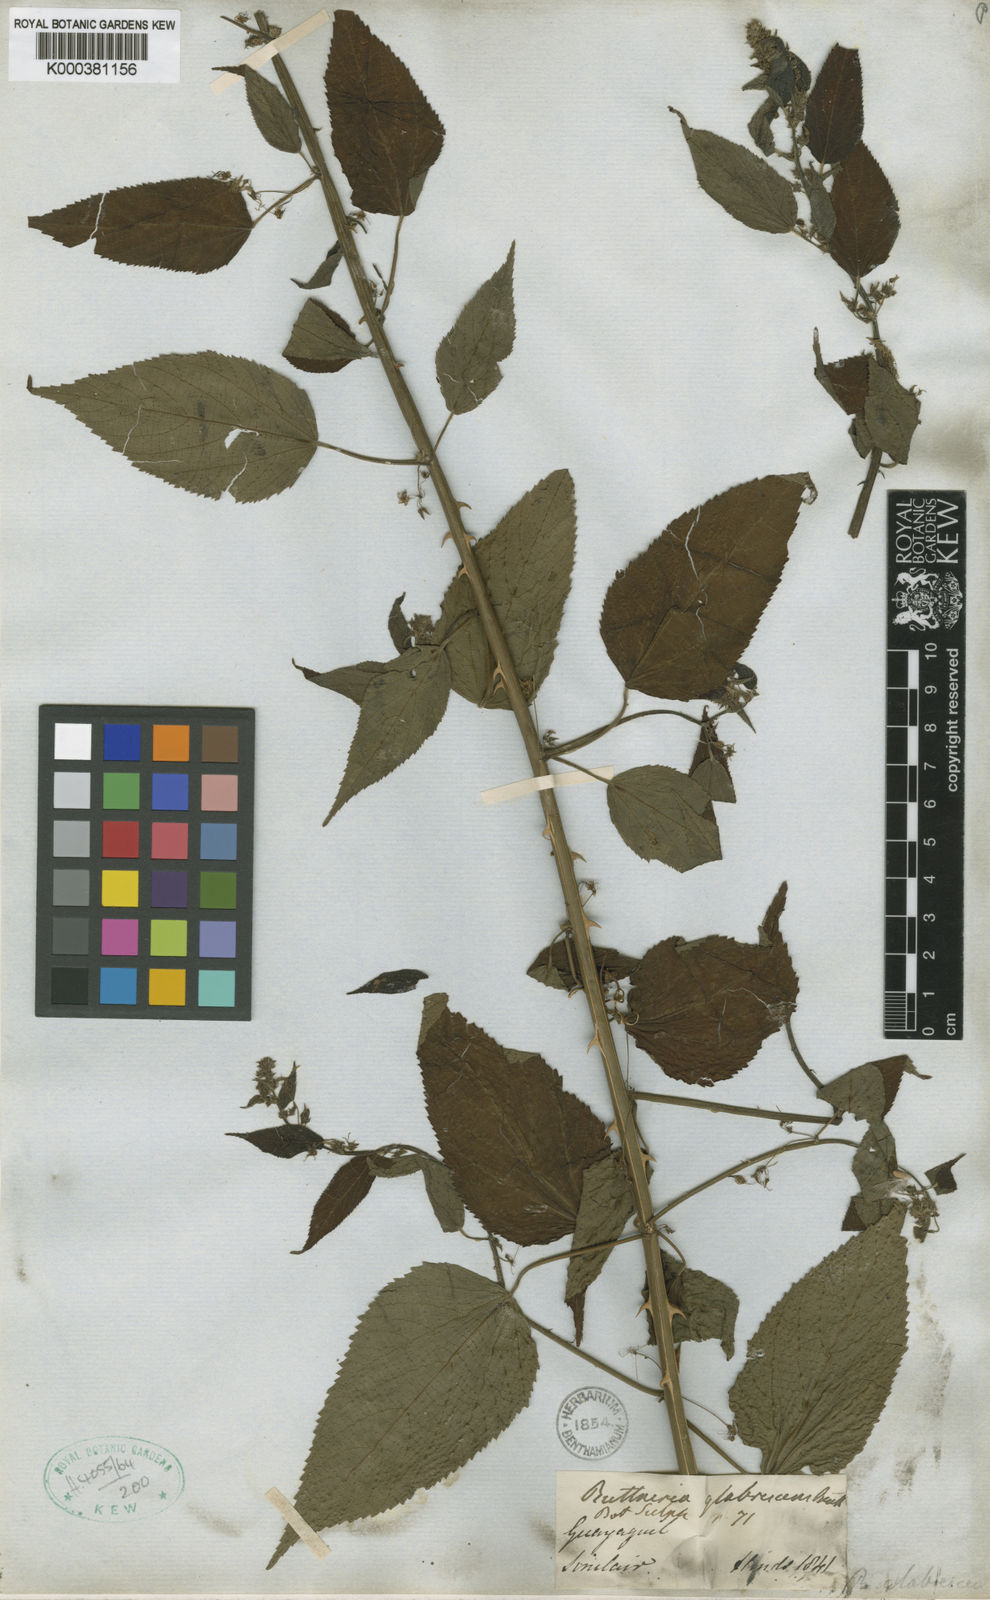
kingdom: Plantae
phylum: Tracheophyta
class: Magnoliopsida
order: Malvales
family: Malvaceae
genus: Byttneria
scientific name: Byttneria corchorifolia
